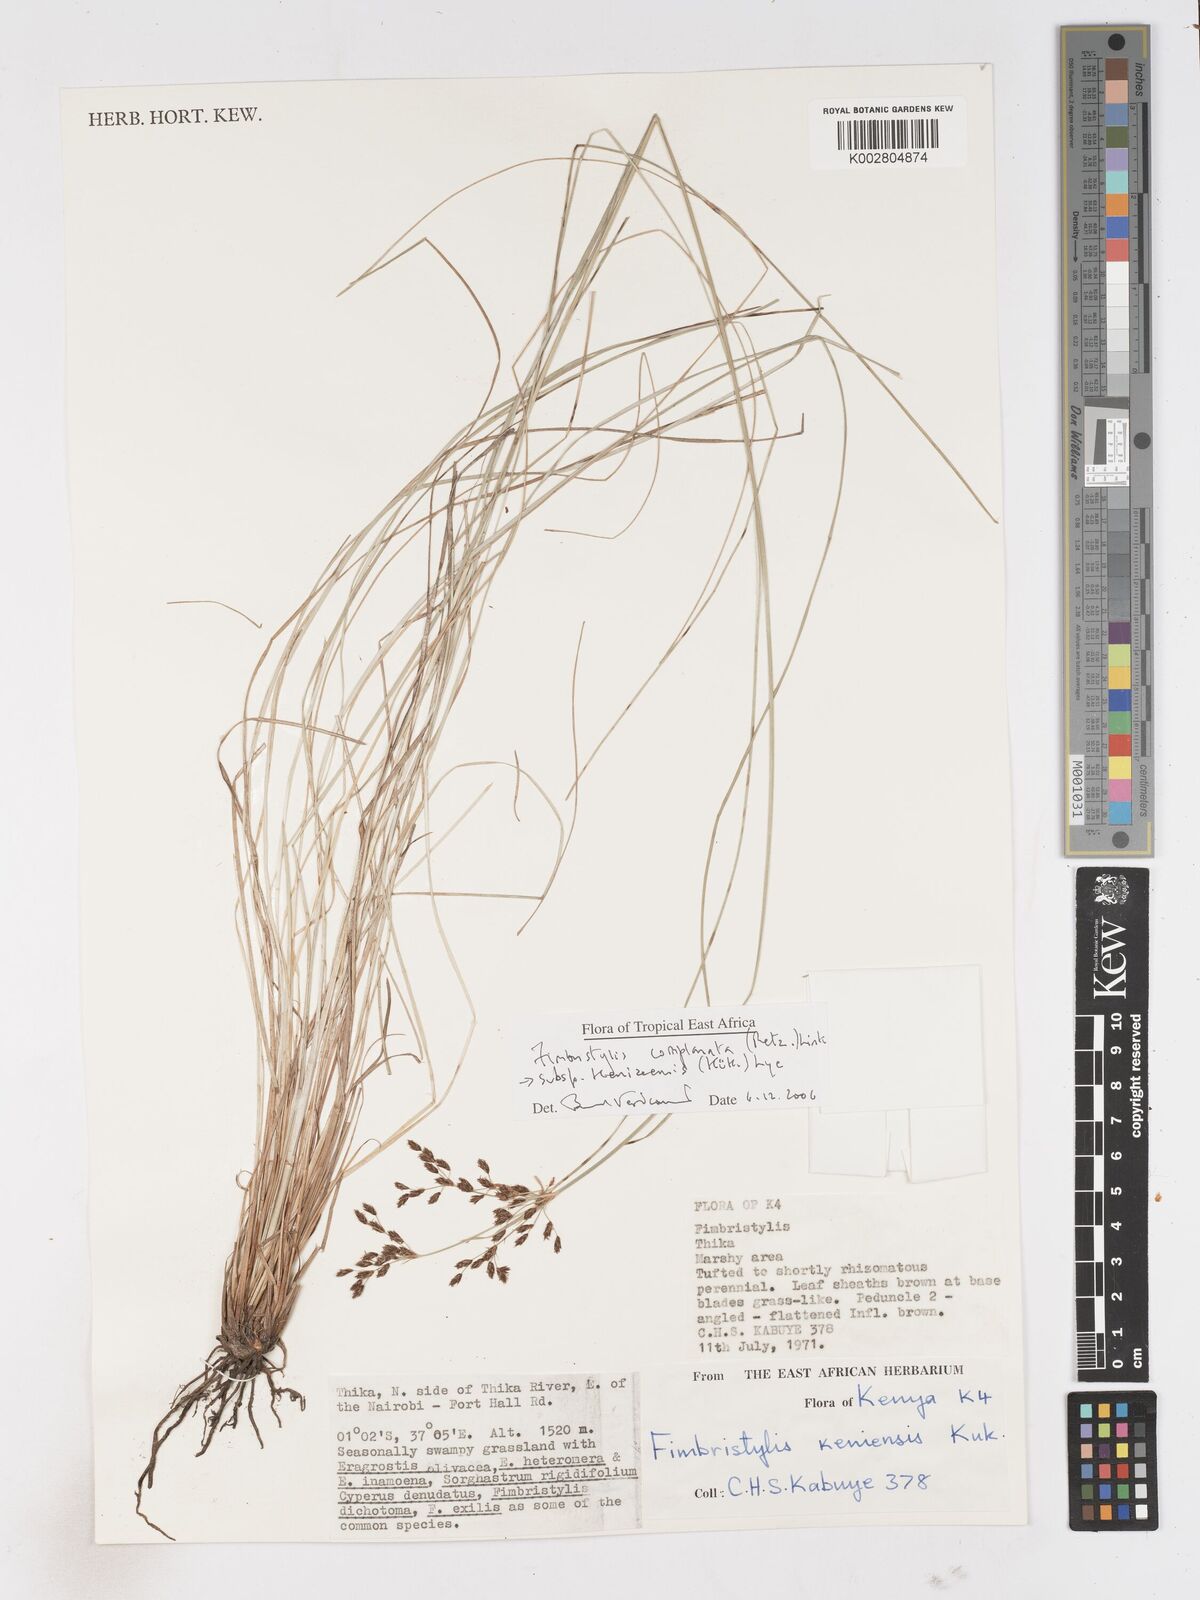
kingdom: Plantae
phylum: Tracheophyta
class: Liliopsida
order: Poales
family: Cyperaceae
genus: Fimbristylis
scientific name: Fimbristylis complanata
